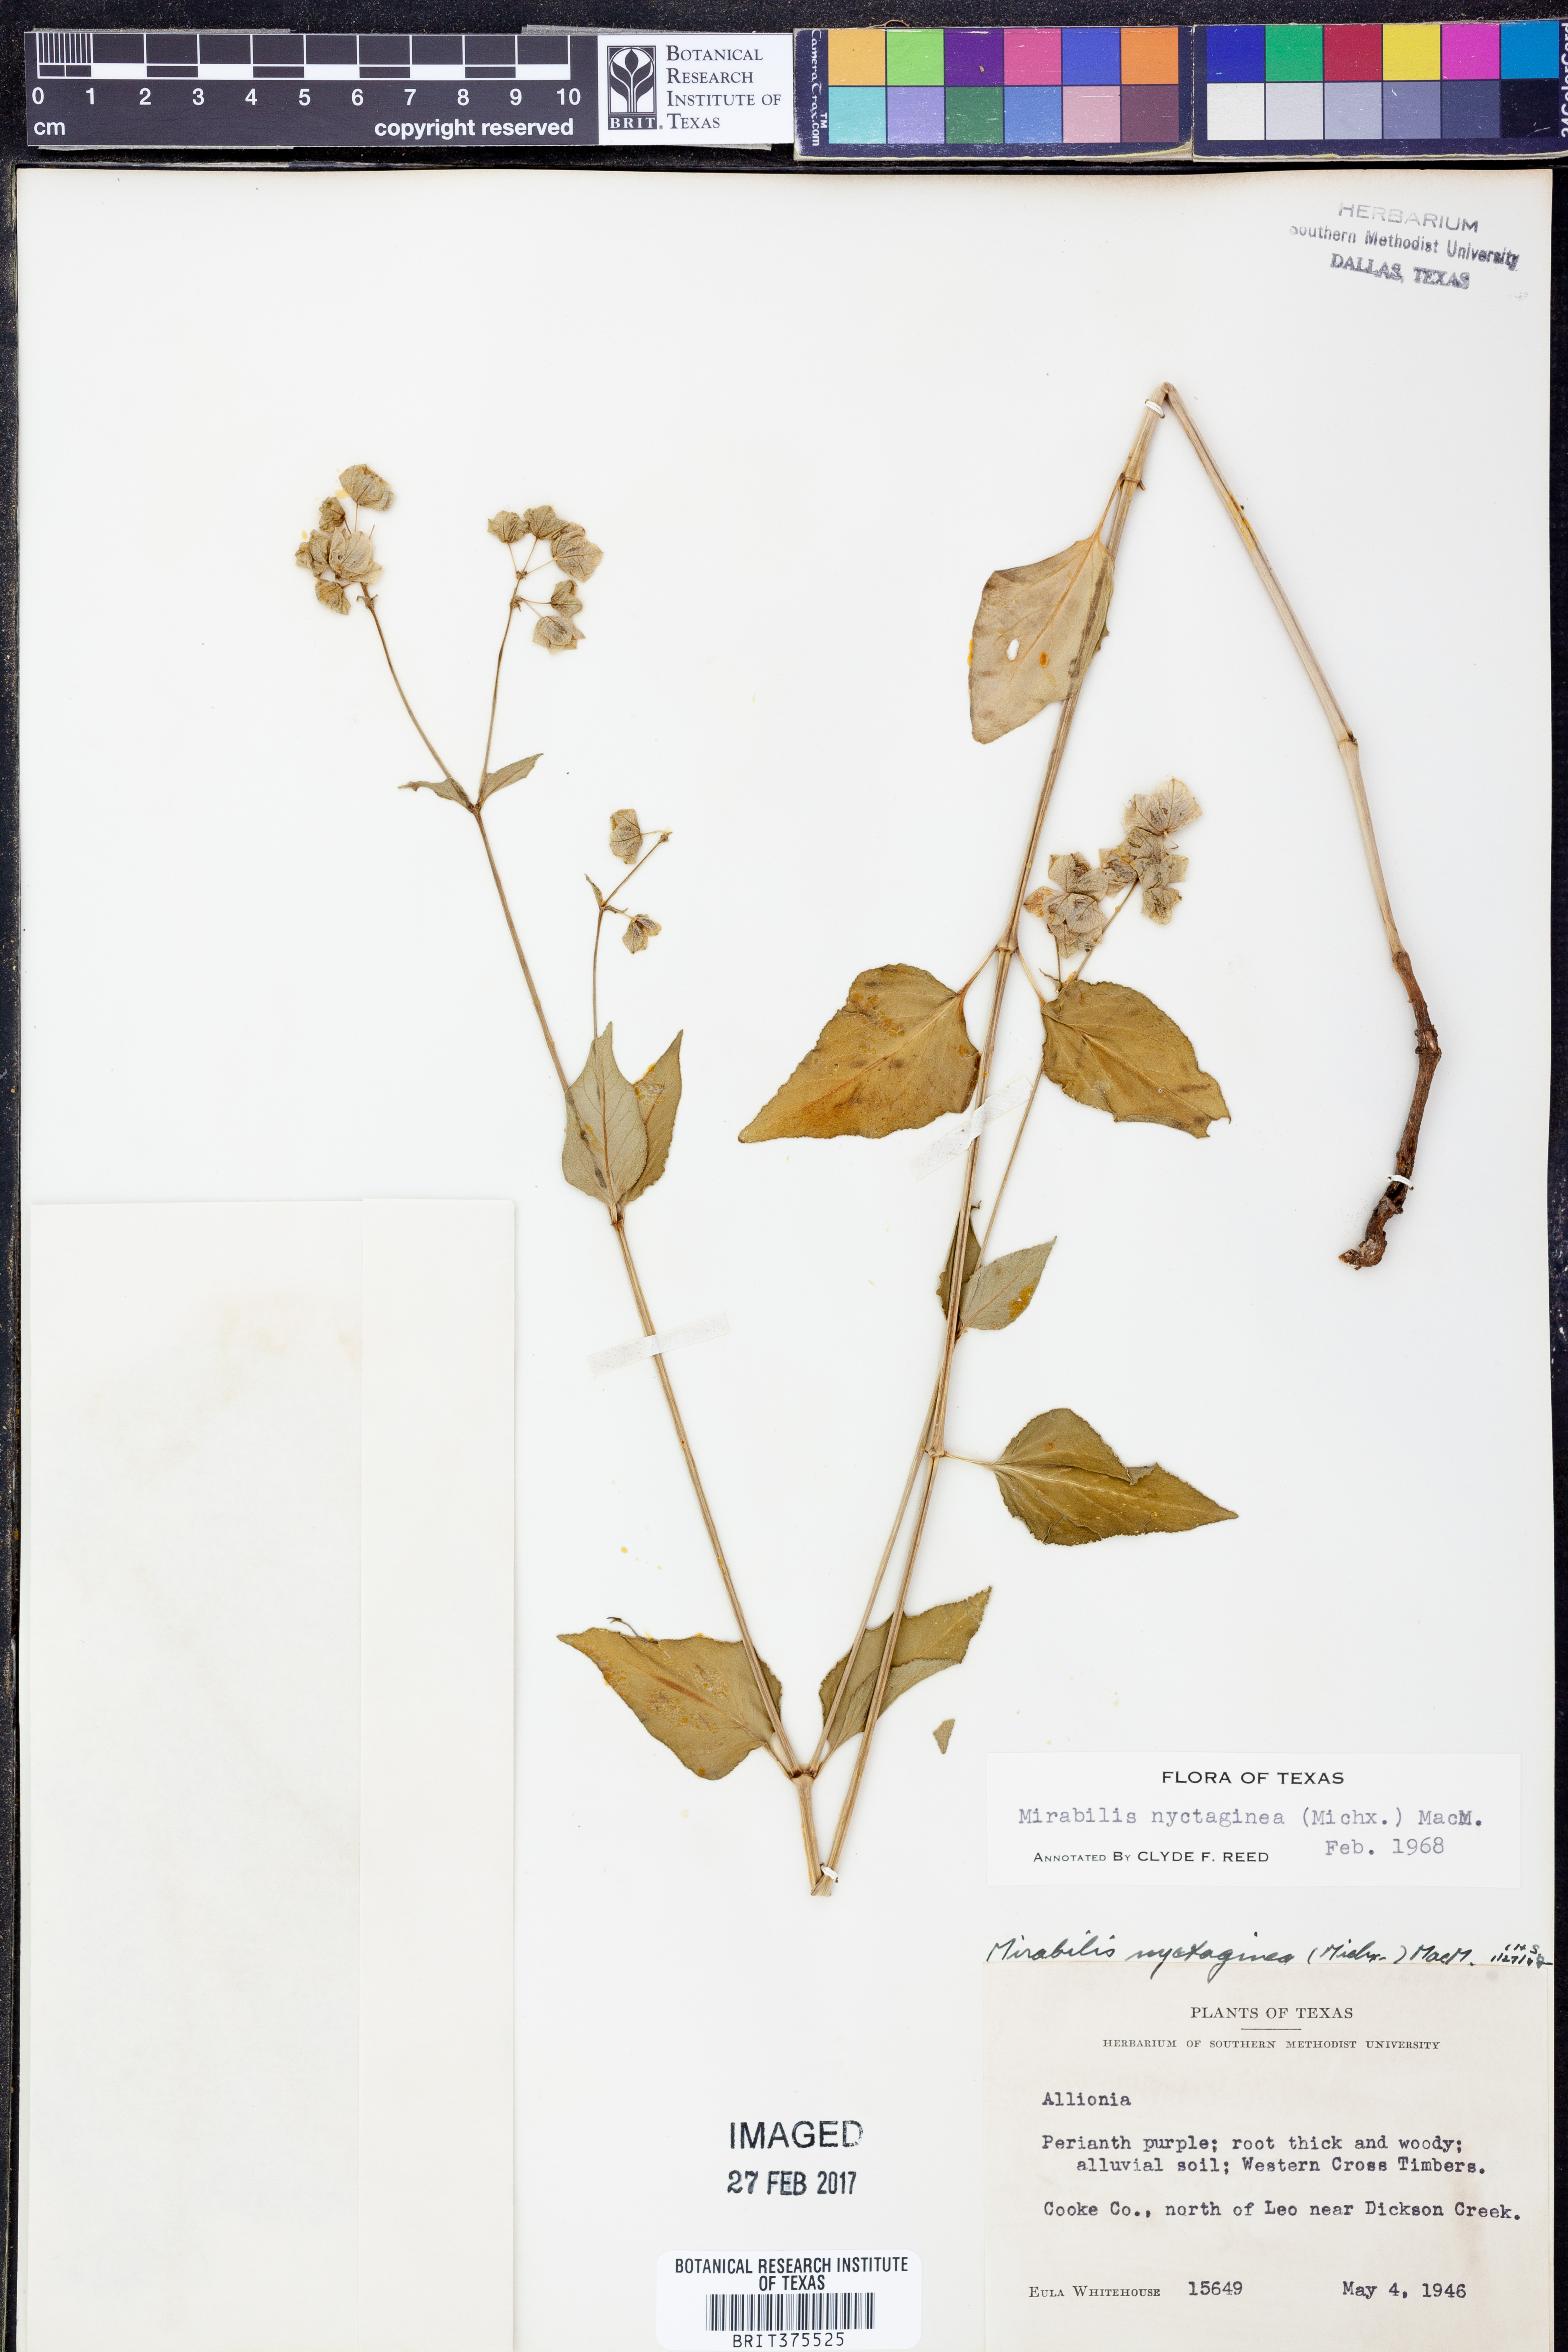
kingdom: Plantae
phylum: Tracheophyta
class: Magnoliopsida
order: Caryophyllales
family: Nyctaginaceae
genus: Mirabilis
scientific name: Mirabilis nyctaginea
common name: Umbrella wort
